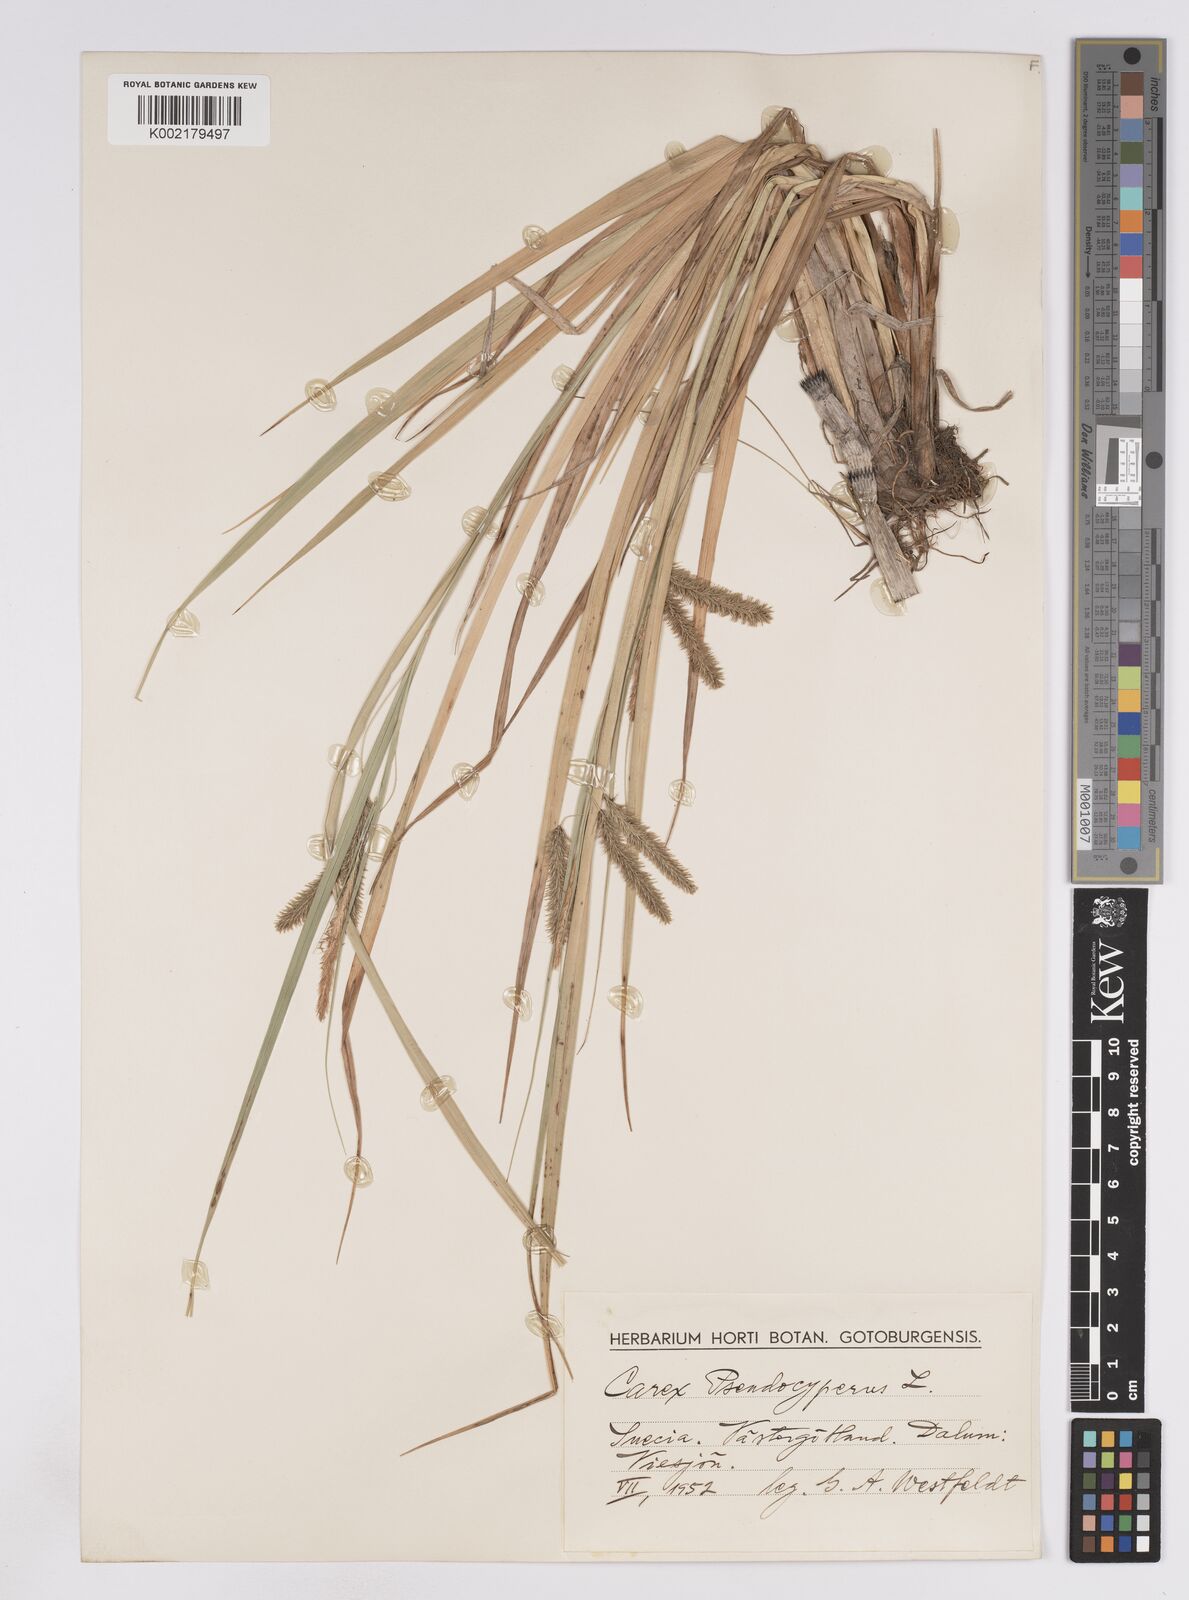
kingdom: Plantae
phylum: Tracheophyta
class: Liliopsida
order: Poales
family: Cyperaceae
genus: Carex
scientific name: Carex pseudocyperus
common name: Cyperus sedge
